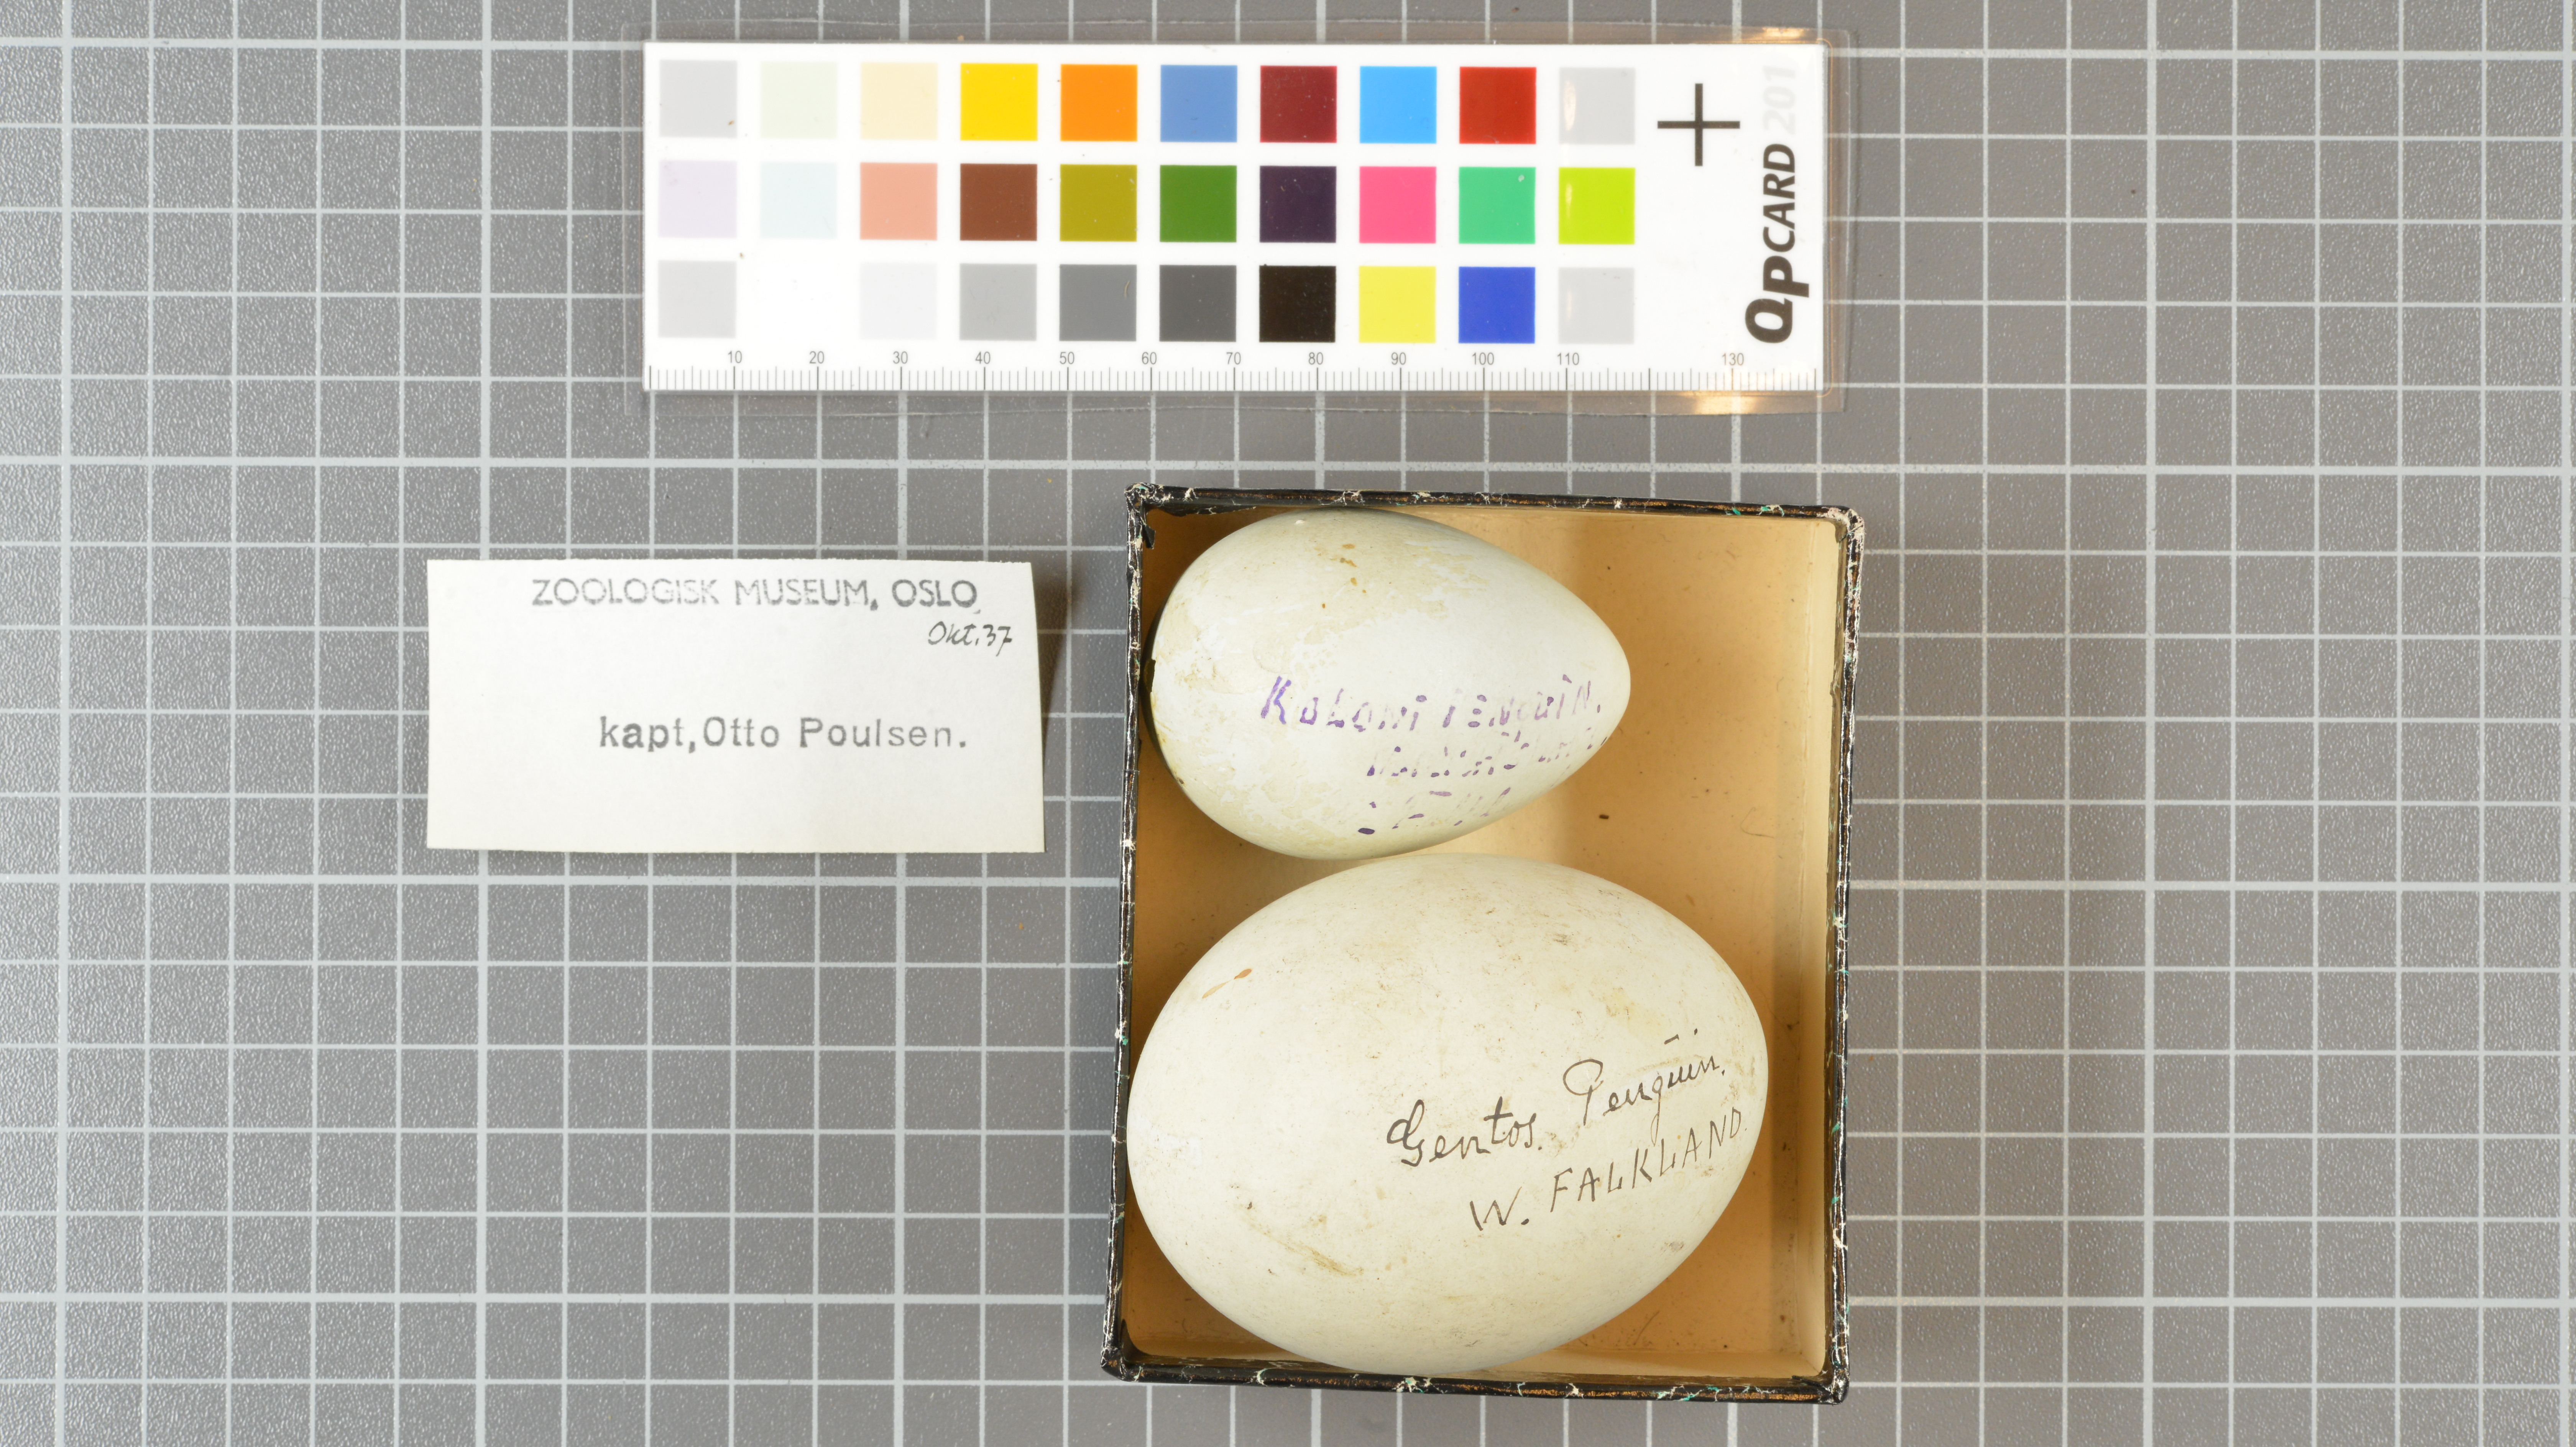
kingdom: Animalia
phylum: Chordata
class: Aves
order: Sphenisciformes
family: Spheniscidae
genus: Pygoscelis
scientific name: Pygoscelis papua
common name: Gentoo penguin
